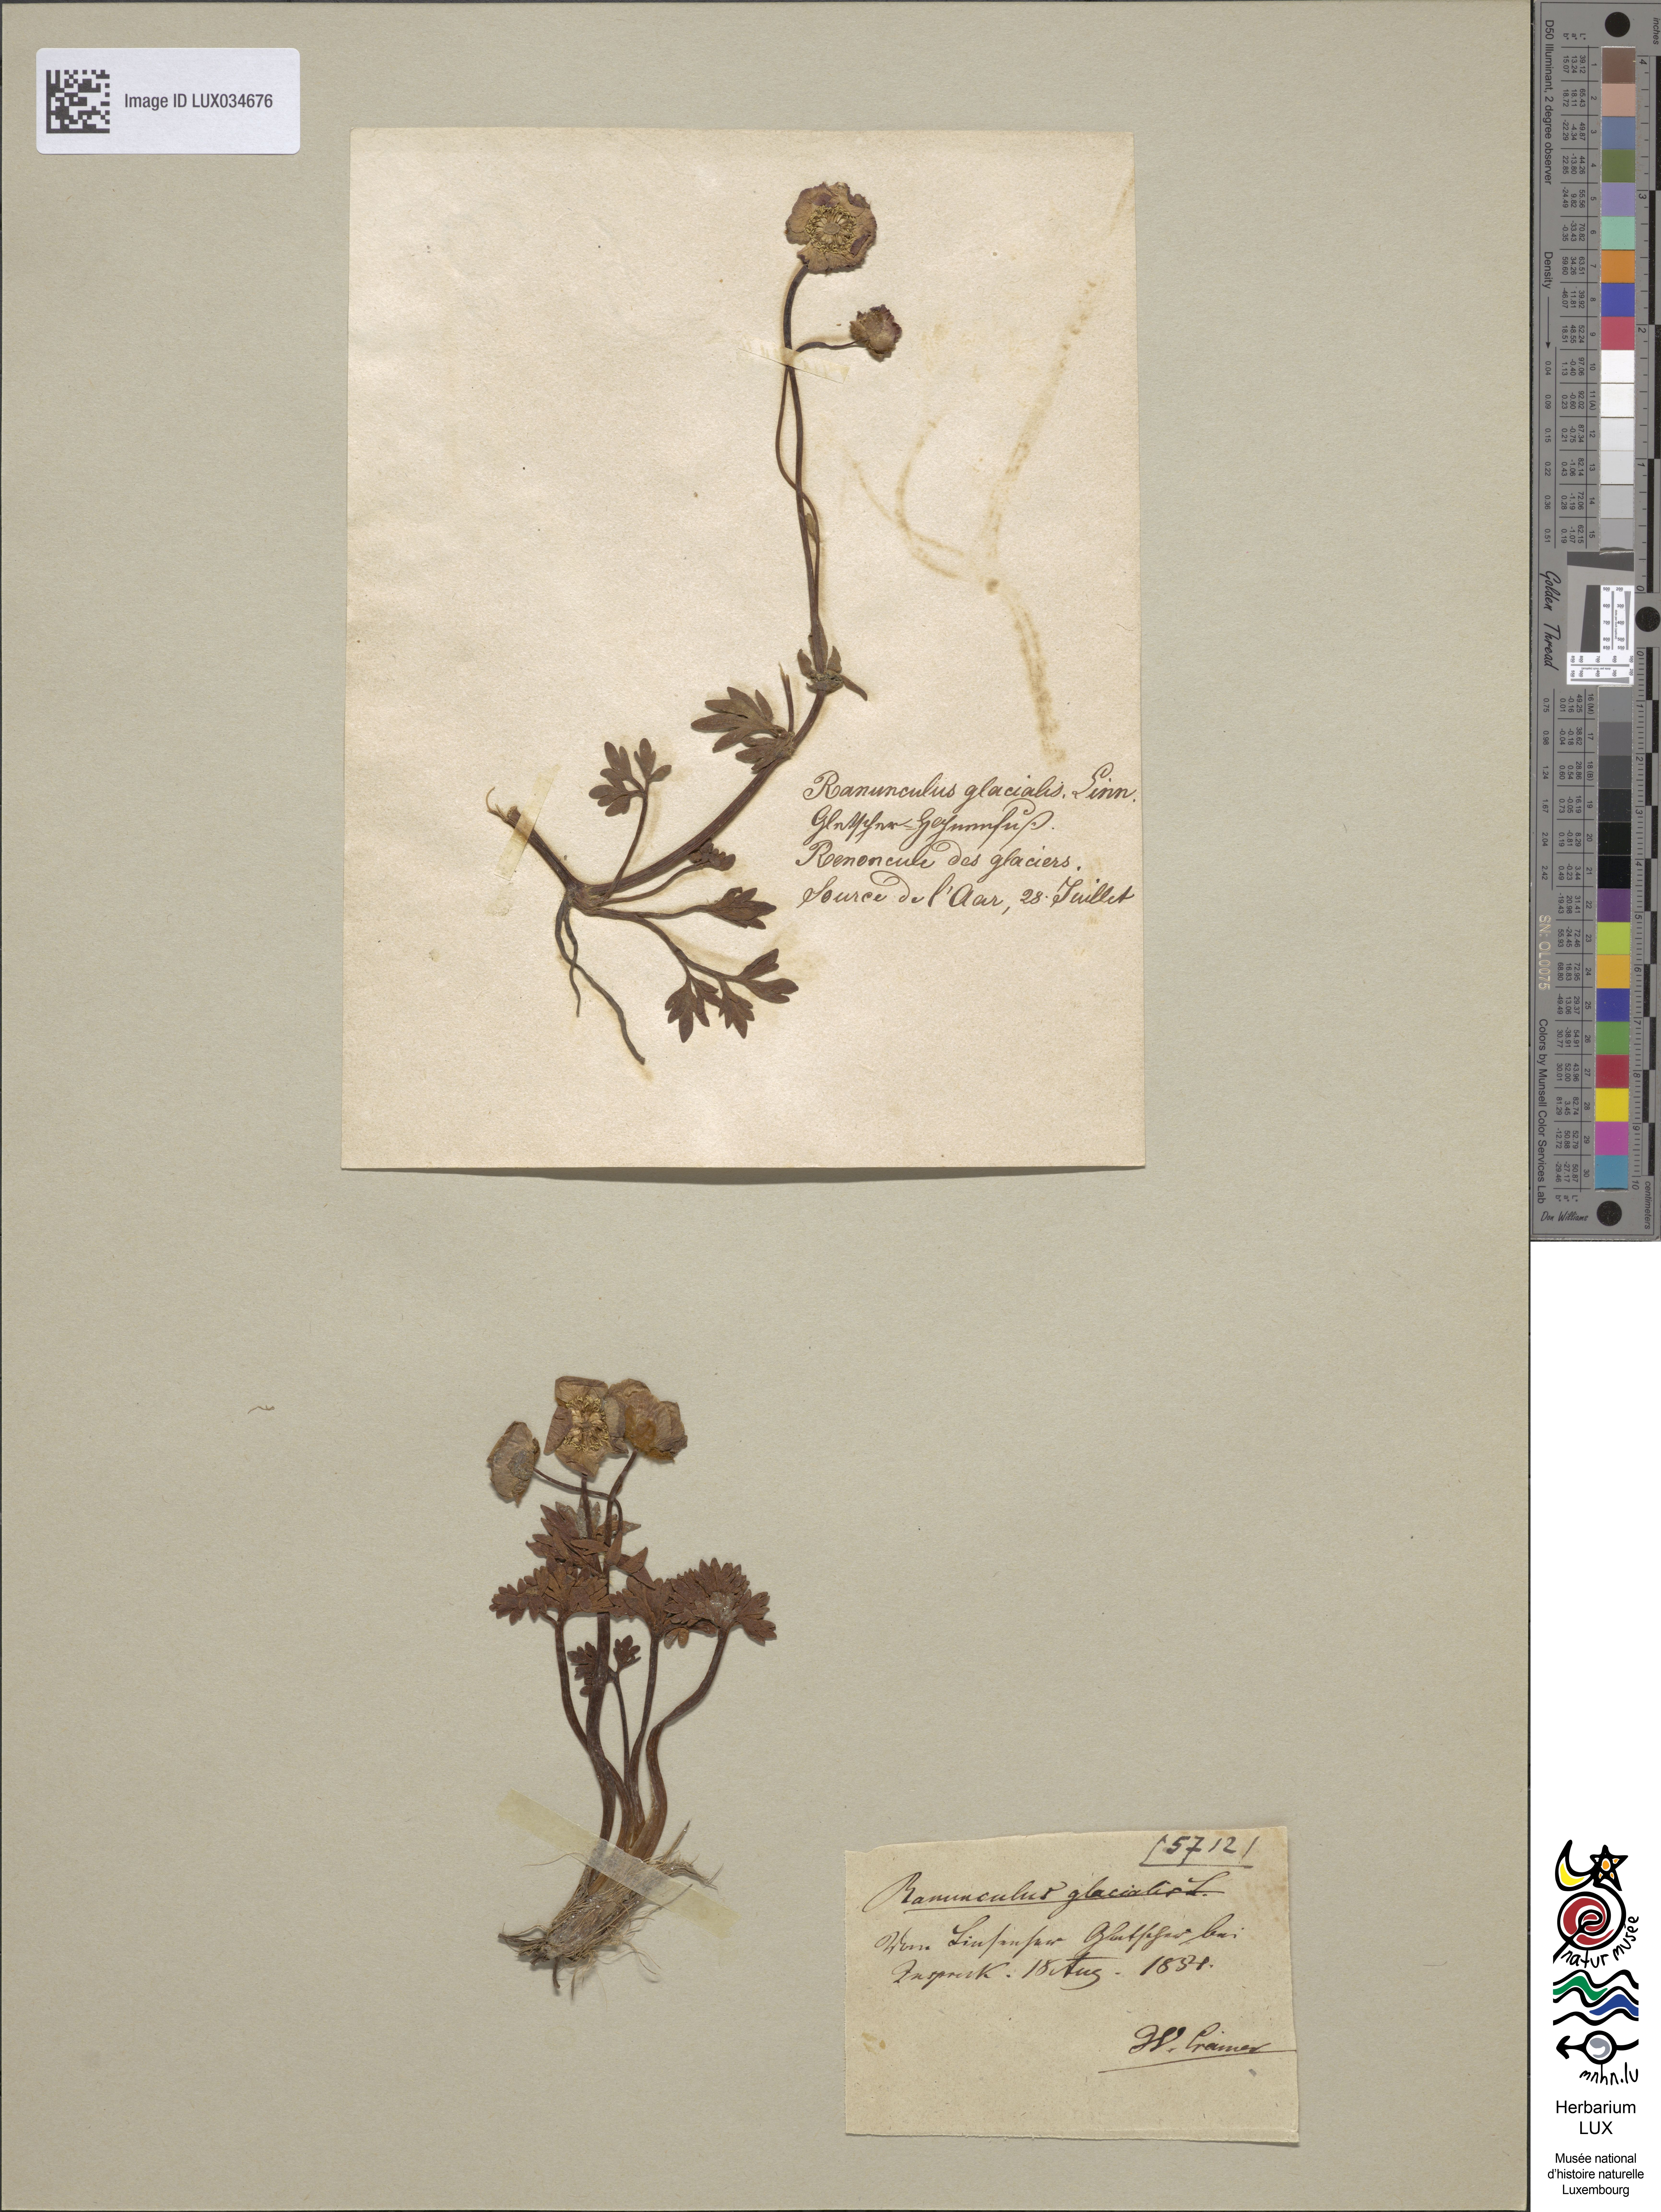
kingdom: Plantae
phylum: Tracheophyta
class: Magnoliopsida
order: Ranunculales
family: Ranunculaceae
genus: Ranunculus
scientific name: Ranunculus glacialis
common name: Glacier buttercup
